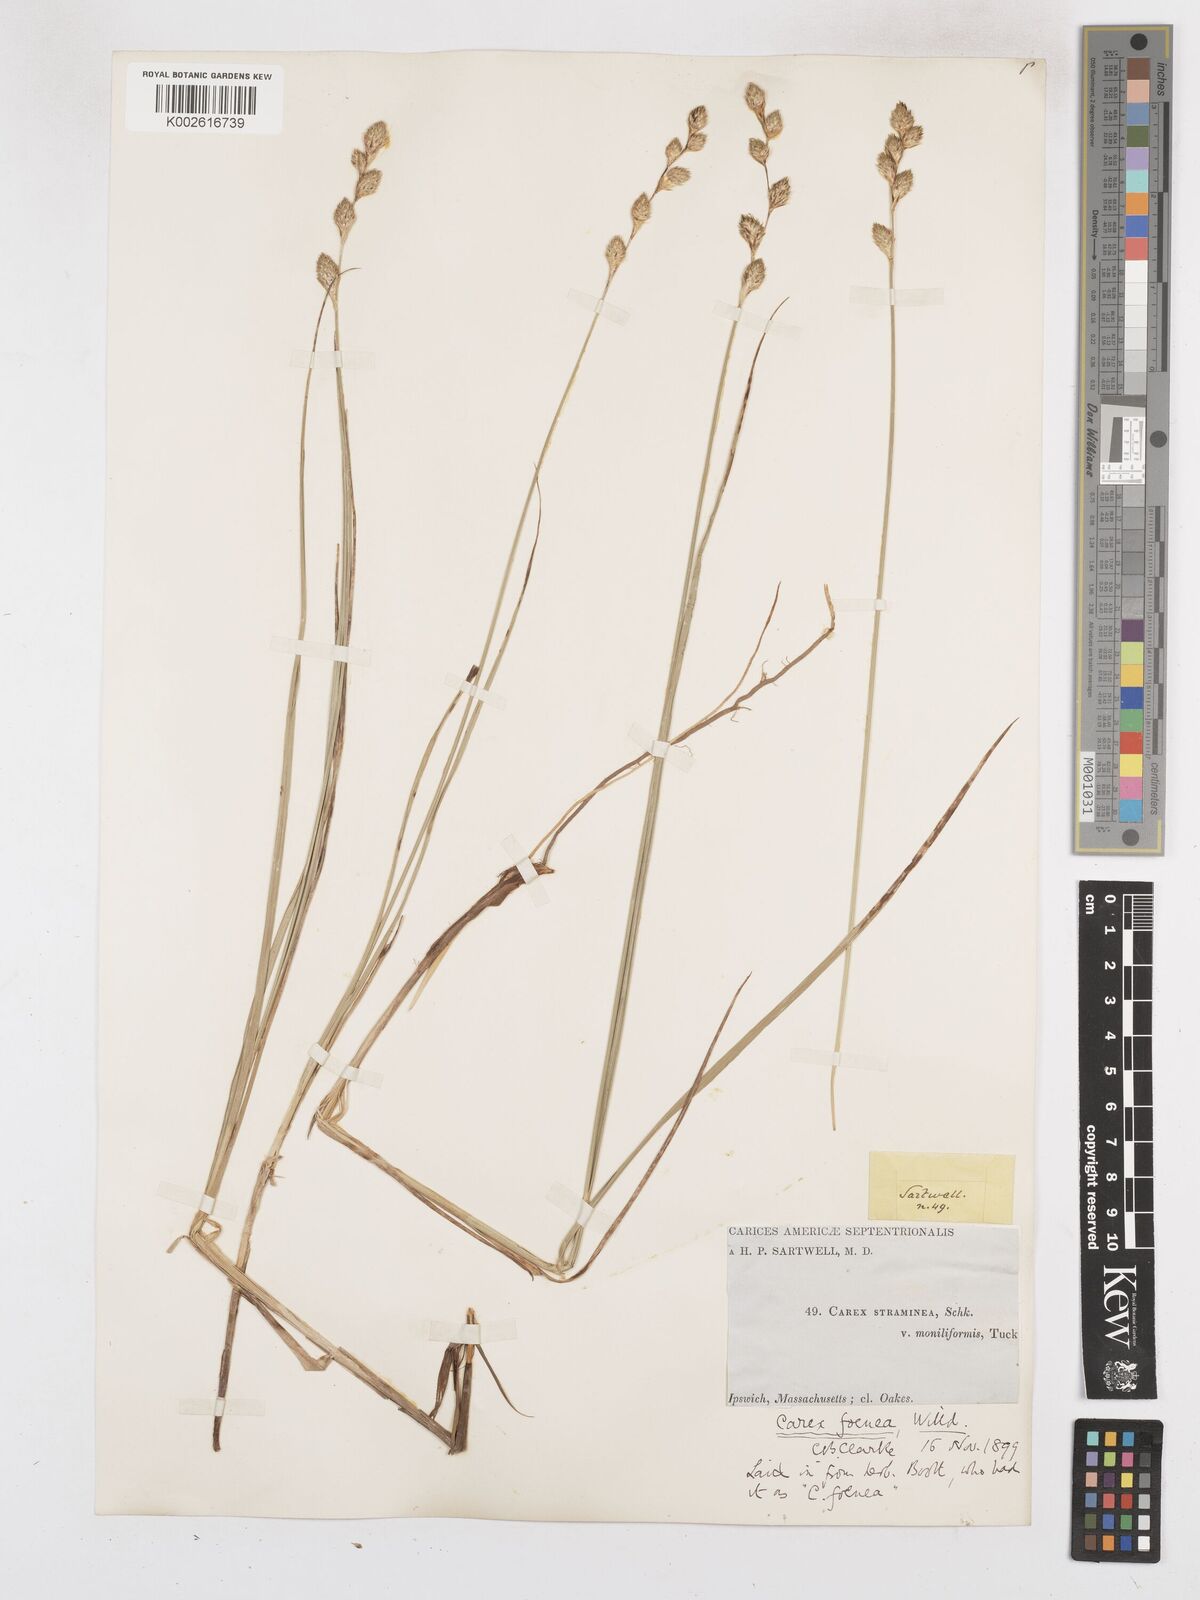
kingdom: Plantae
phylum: Tracheophyta
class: Liliopsida
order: Poales
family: Cyperaceae
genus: Carex
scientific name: Carex argyrantha
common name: Silvery-flowered sedge
